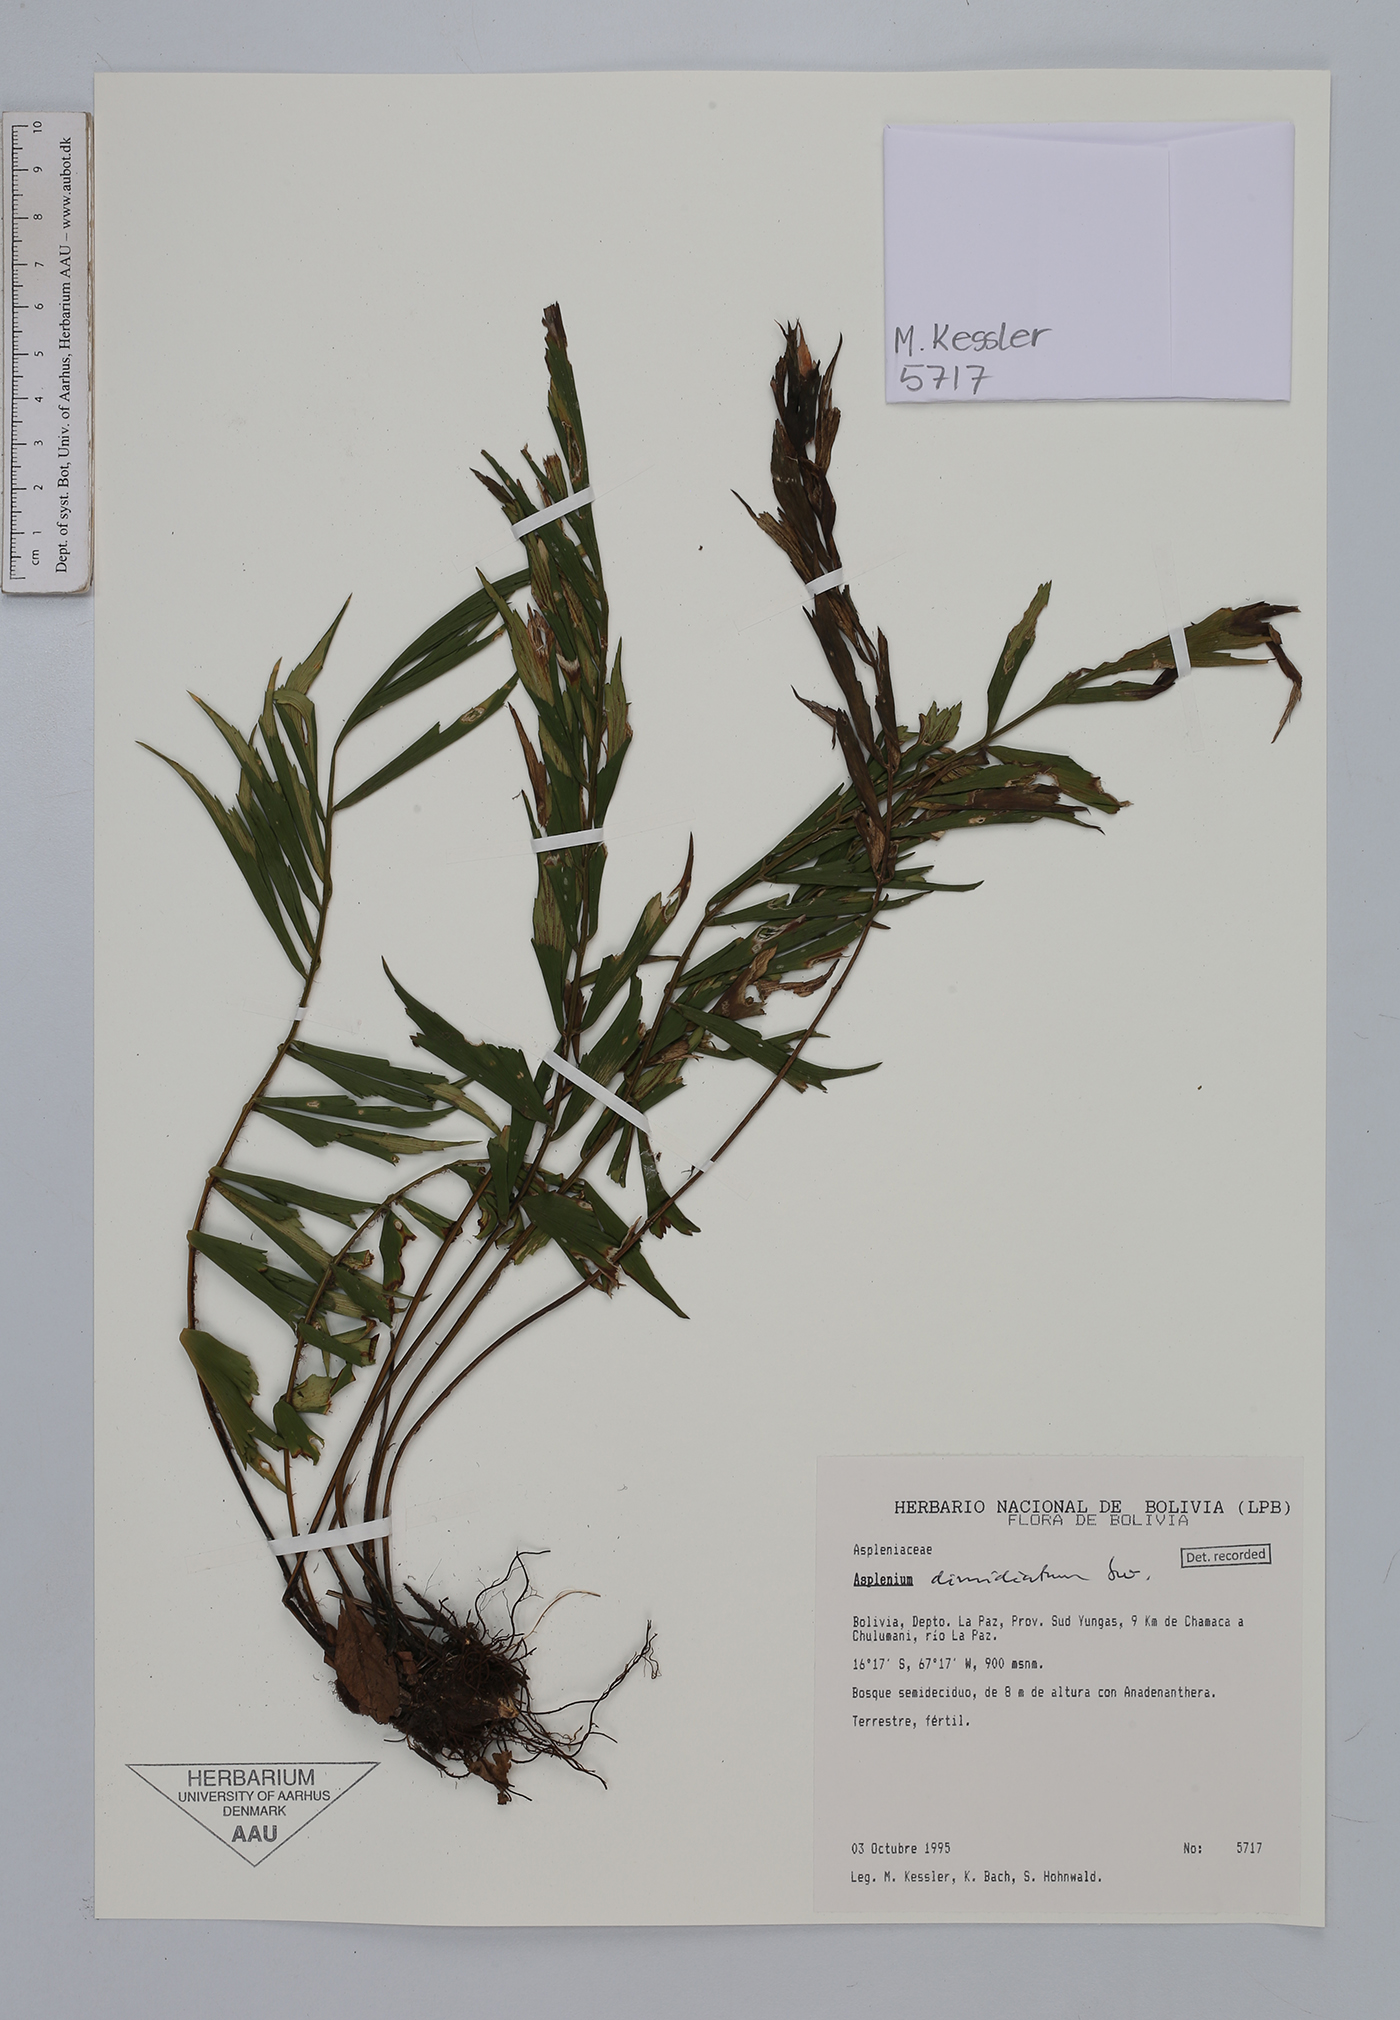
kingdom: Plantae
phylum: Tracheophyta
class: Polypodiopsida
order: Polypodiales
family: Aspleniaceae
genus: Asplenium
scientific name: Asplenium dimidiatum
